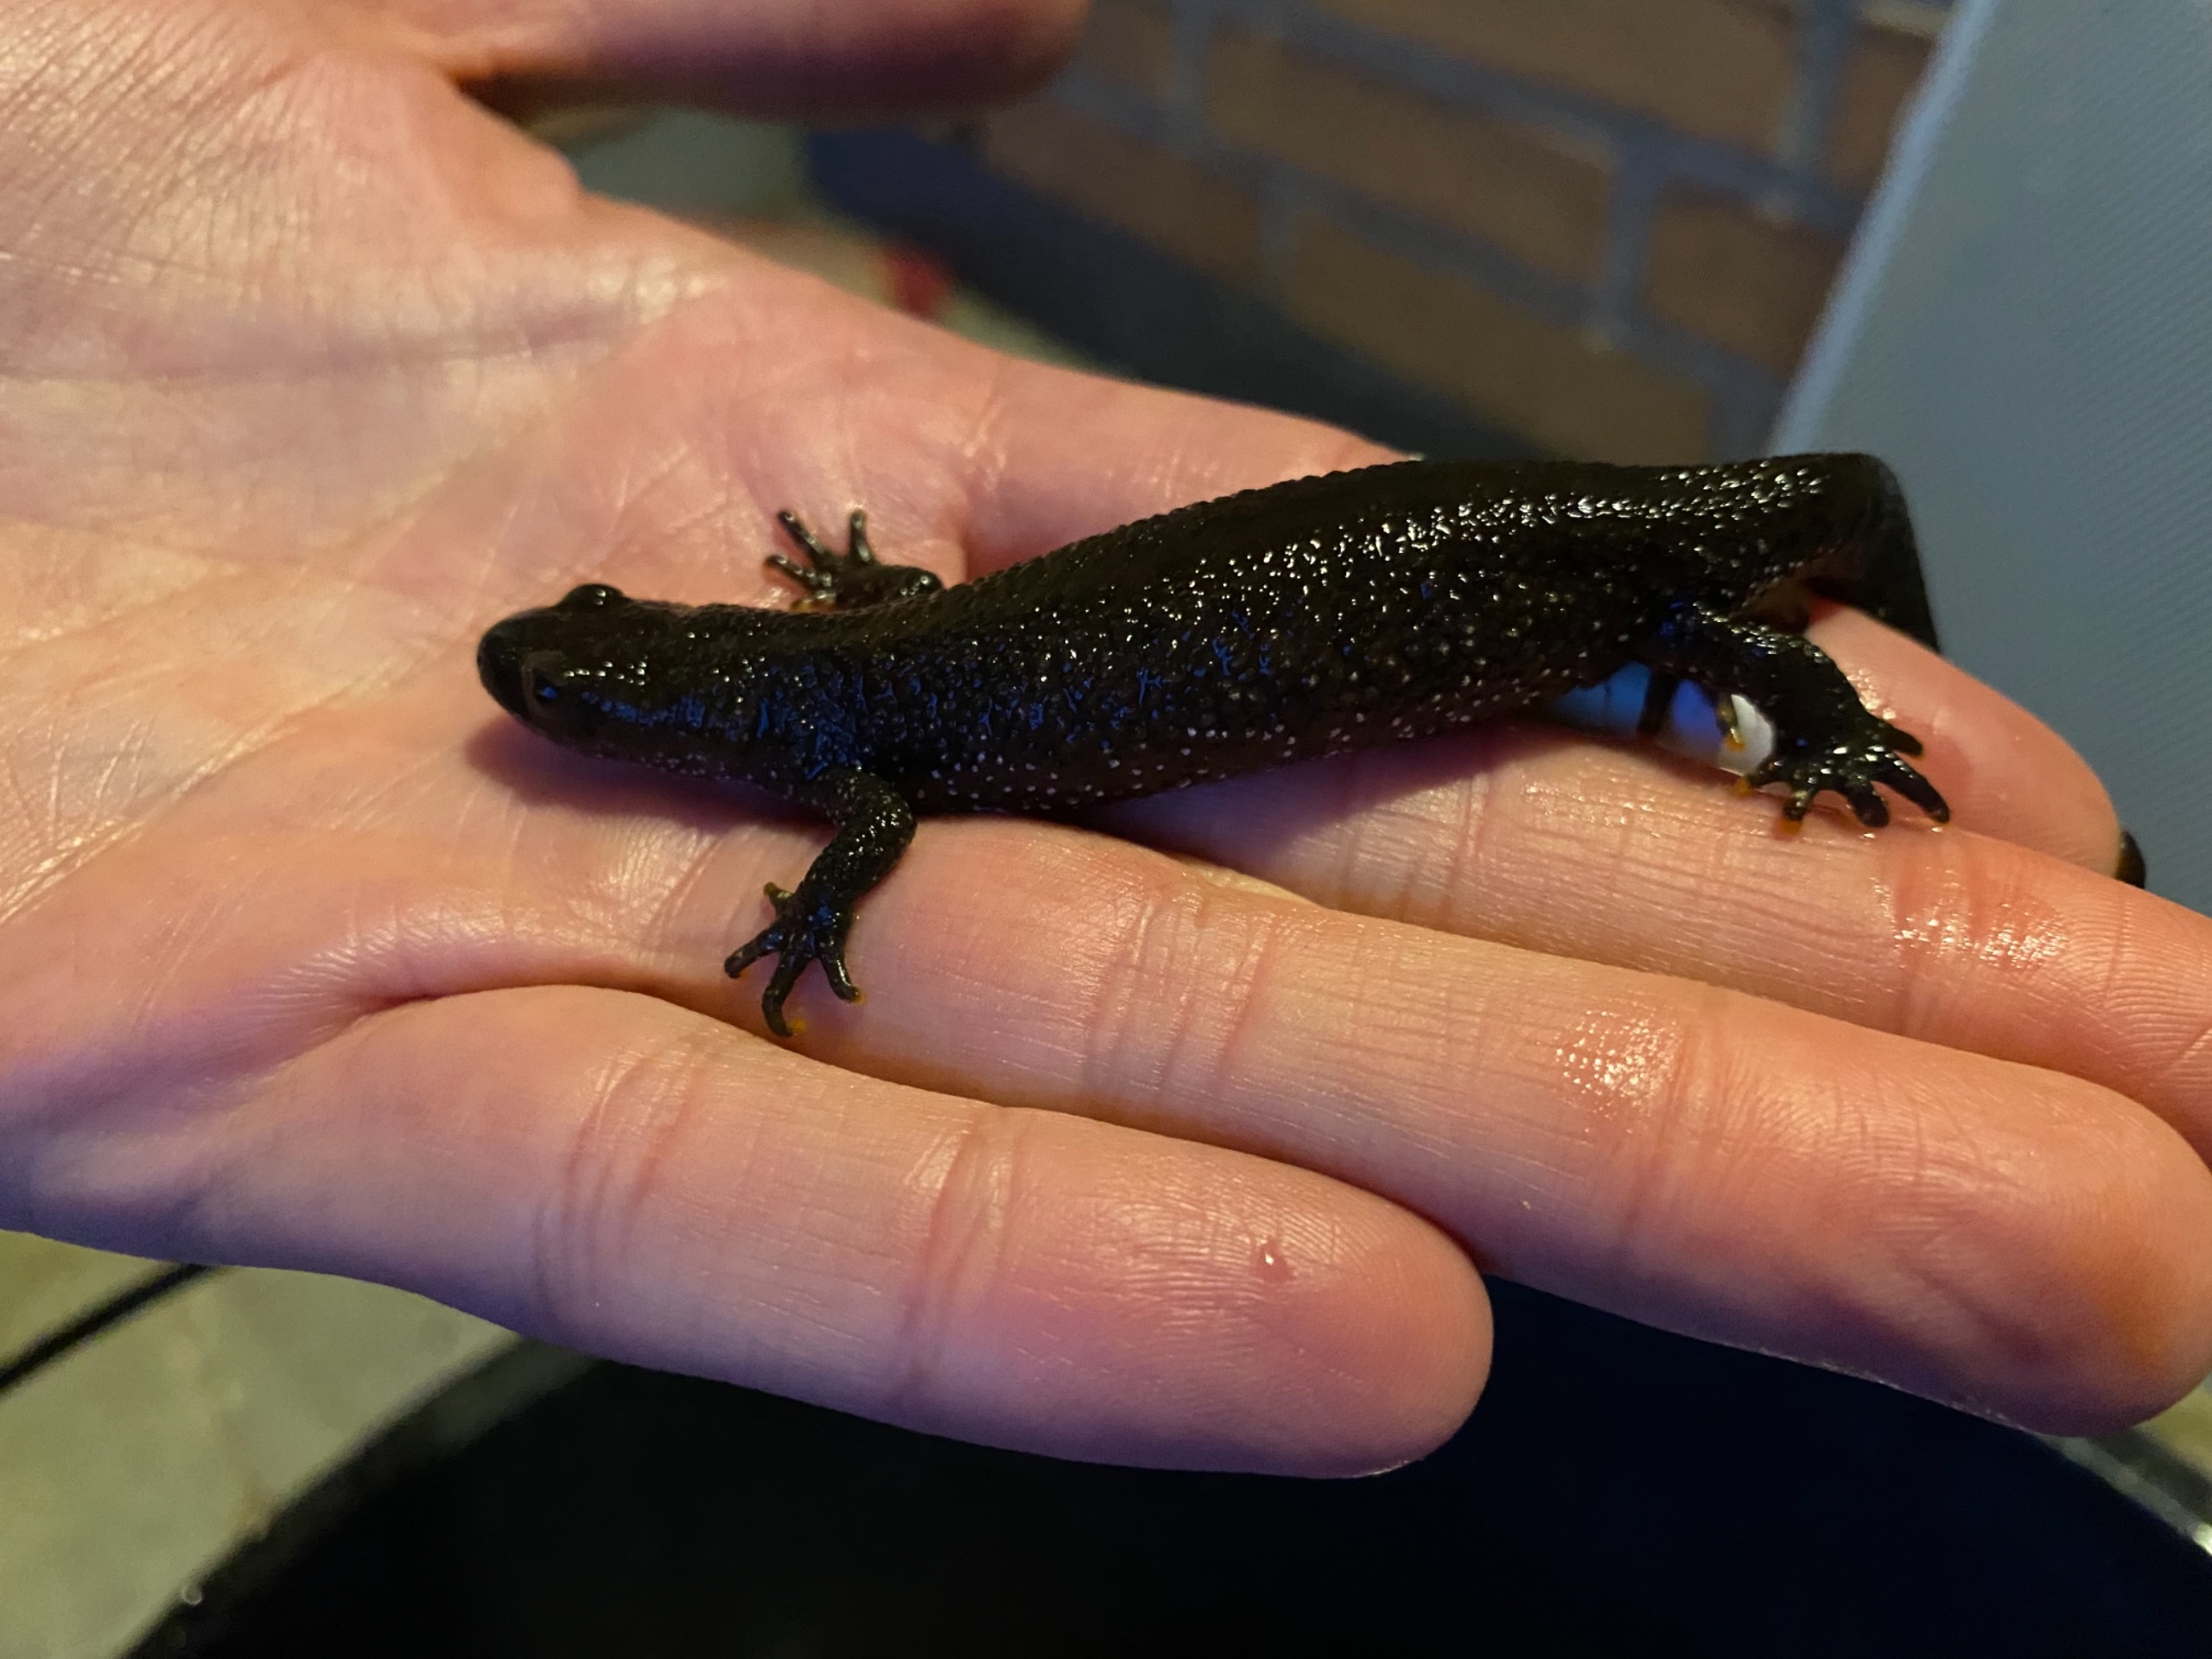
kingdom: Animalia
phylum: Chordata
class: Amphibia
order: Caudata
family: Salamandridae
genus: Triturus
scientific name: Triturus cristatus
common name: Stor vandsalamander
